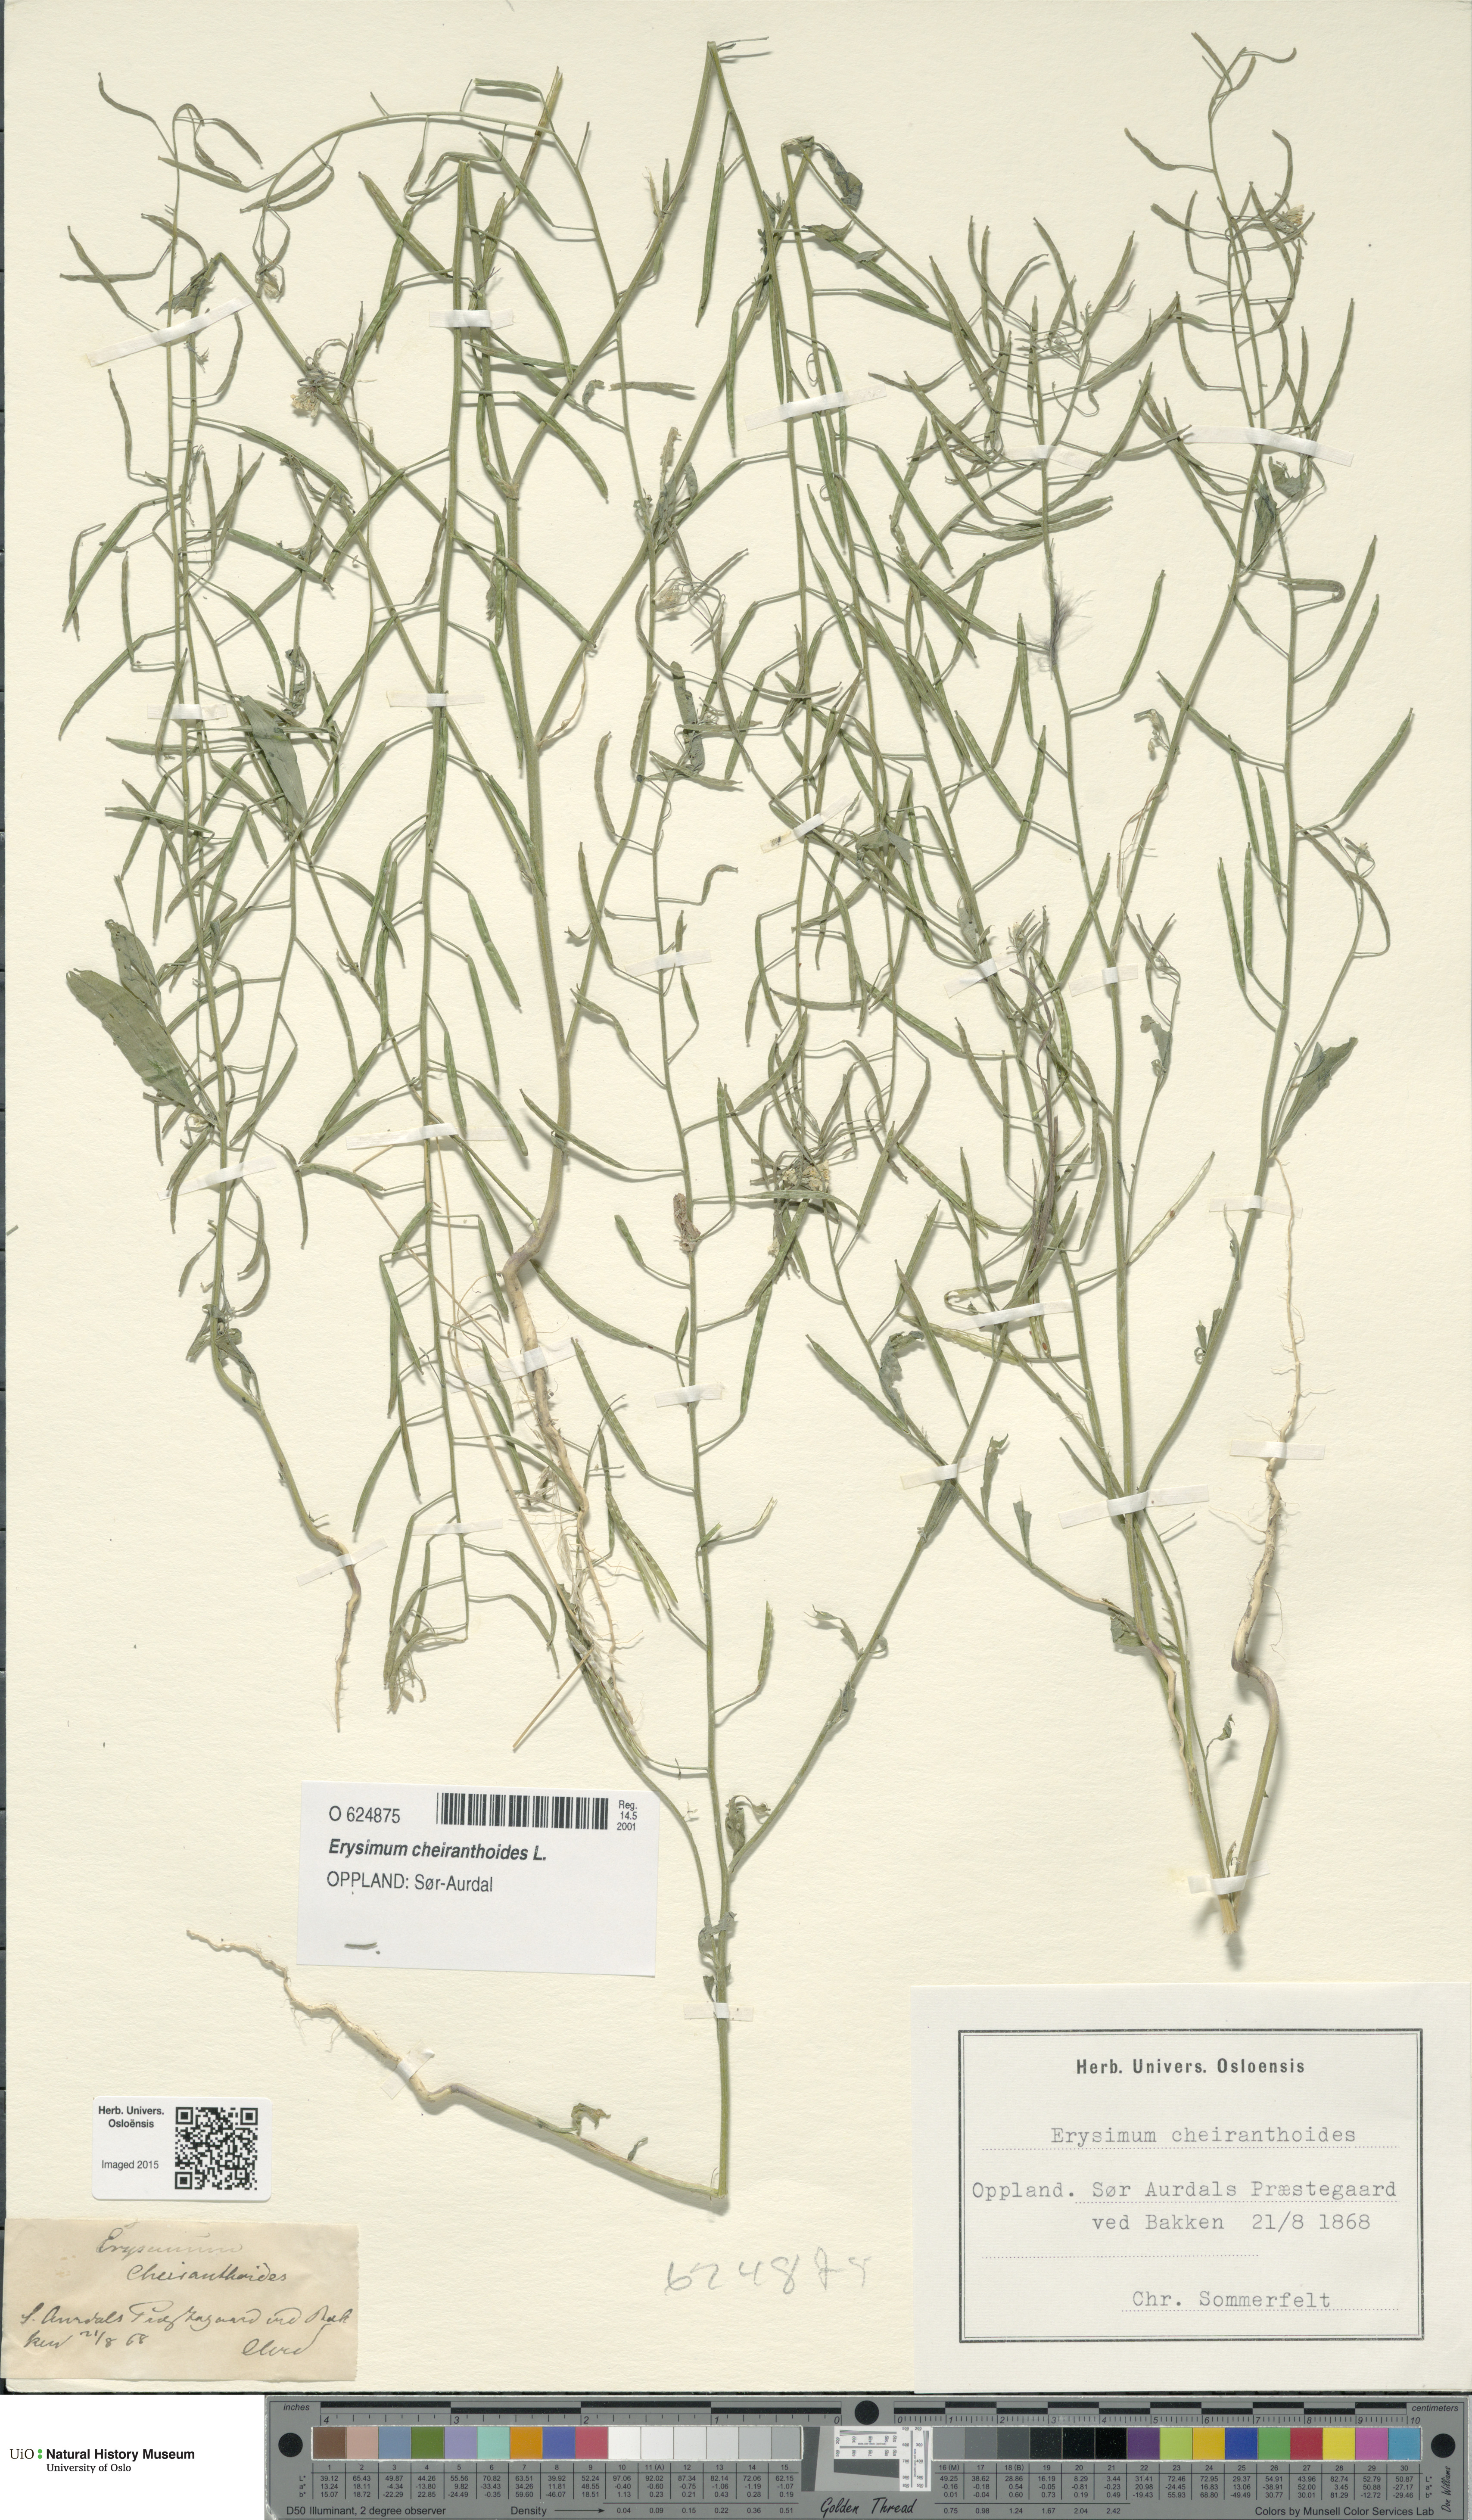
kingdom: Plantae
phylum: Tracheophyta
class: Magnoliopsida
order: Brassicales
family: Brassicaceae
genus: Erysimum
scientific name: Erysimum cheiranthoides
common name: Treacle mustard
